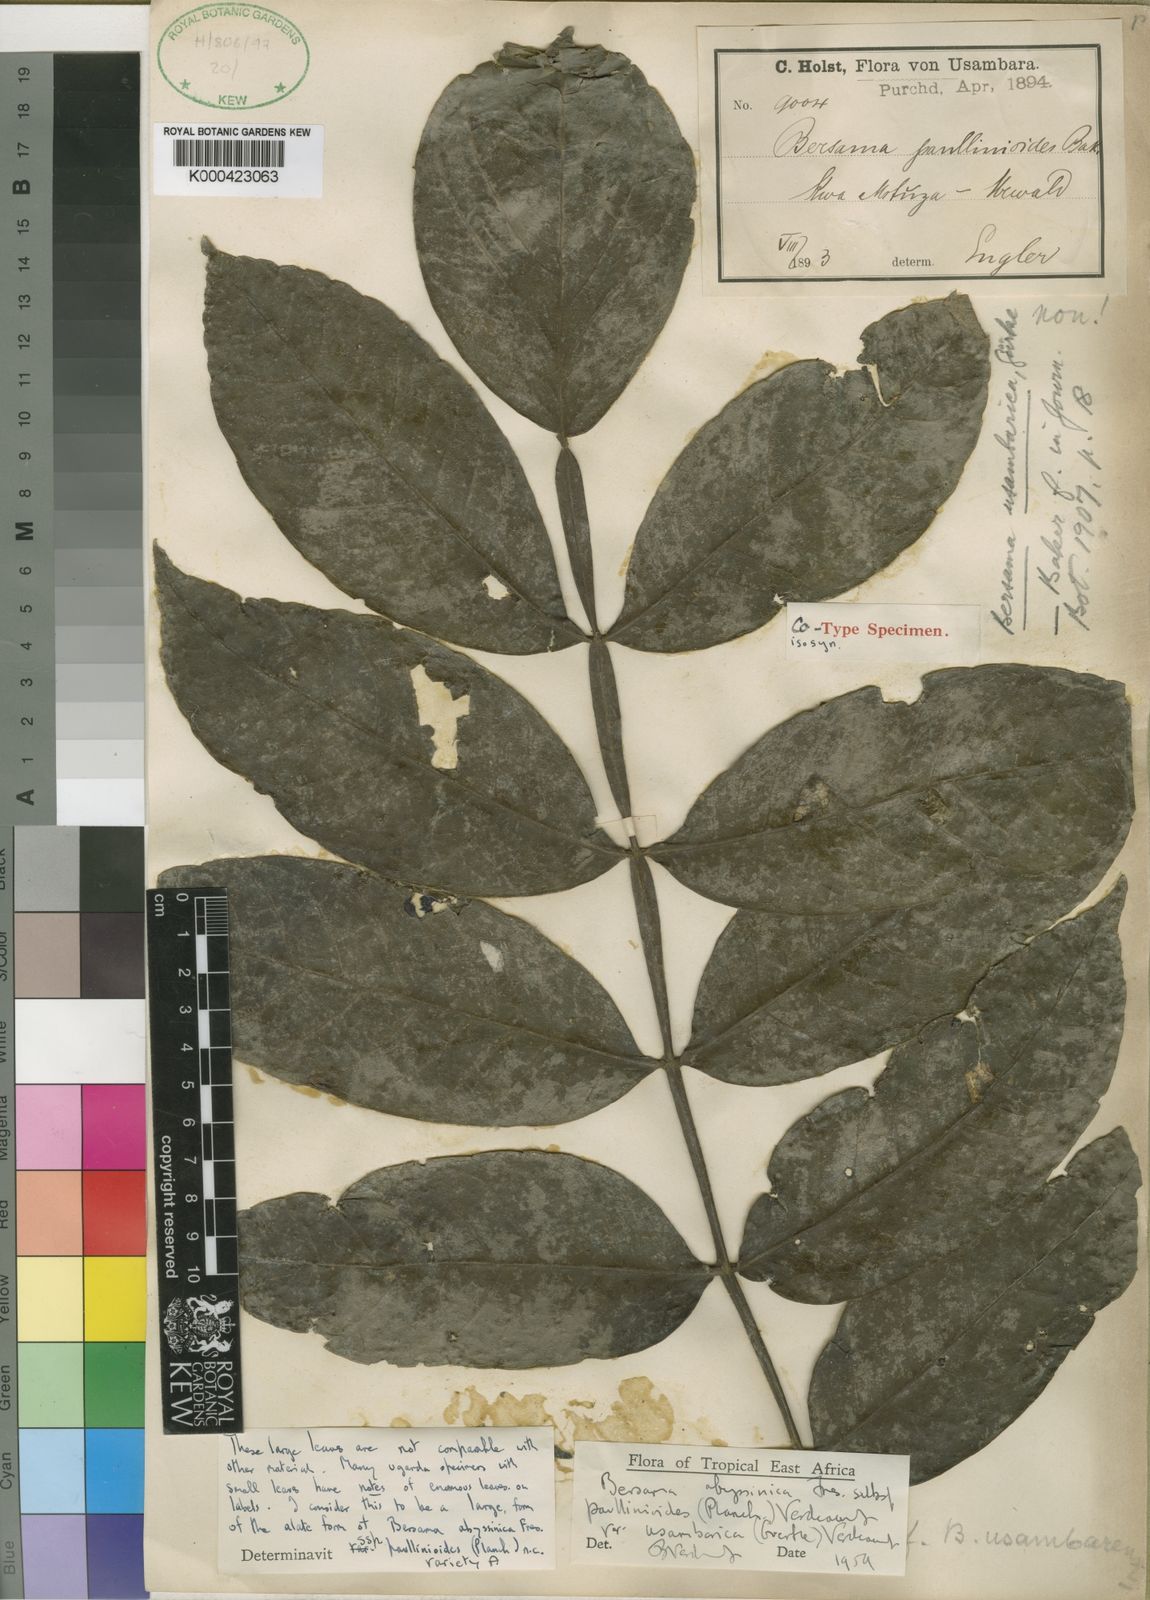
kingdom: Plantae
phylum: Tracheophyta
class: Magnoliopsida
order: Geraniales
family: Melianthaceae
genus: Bersama
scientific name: Bersama abyssinica
